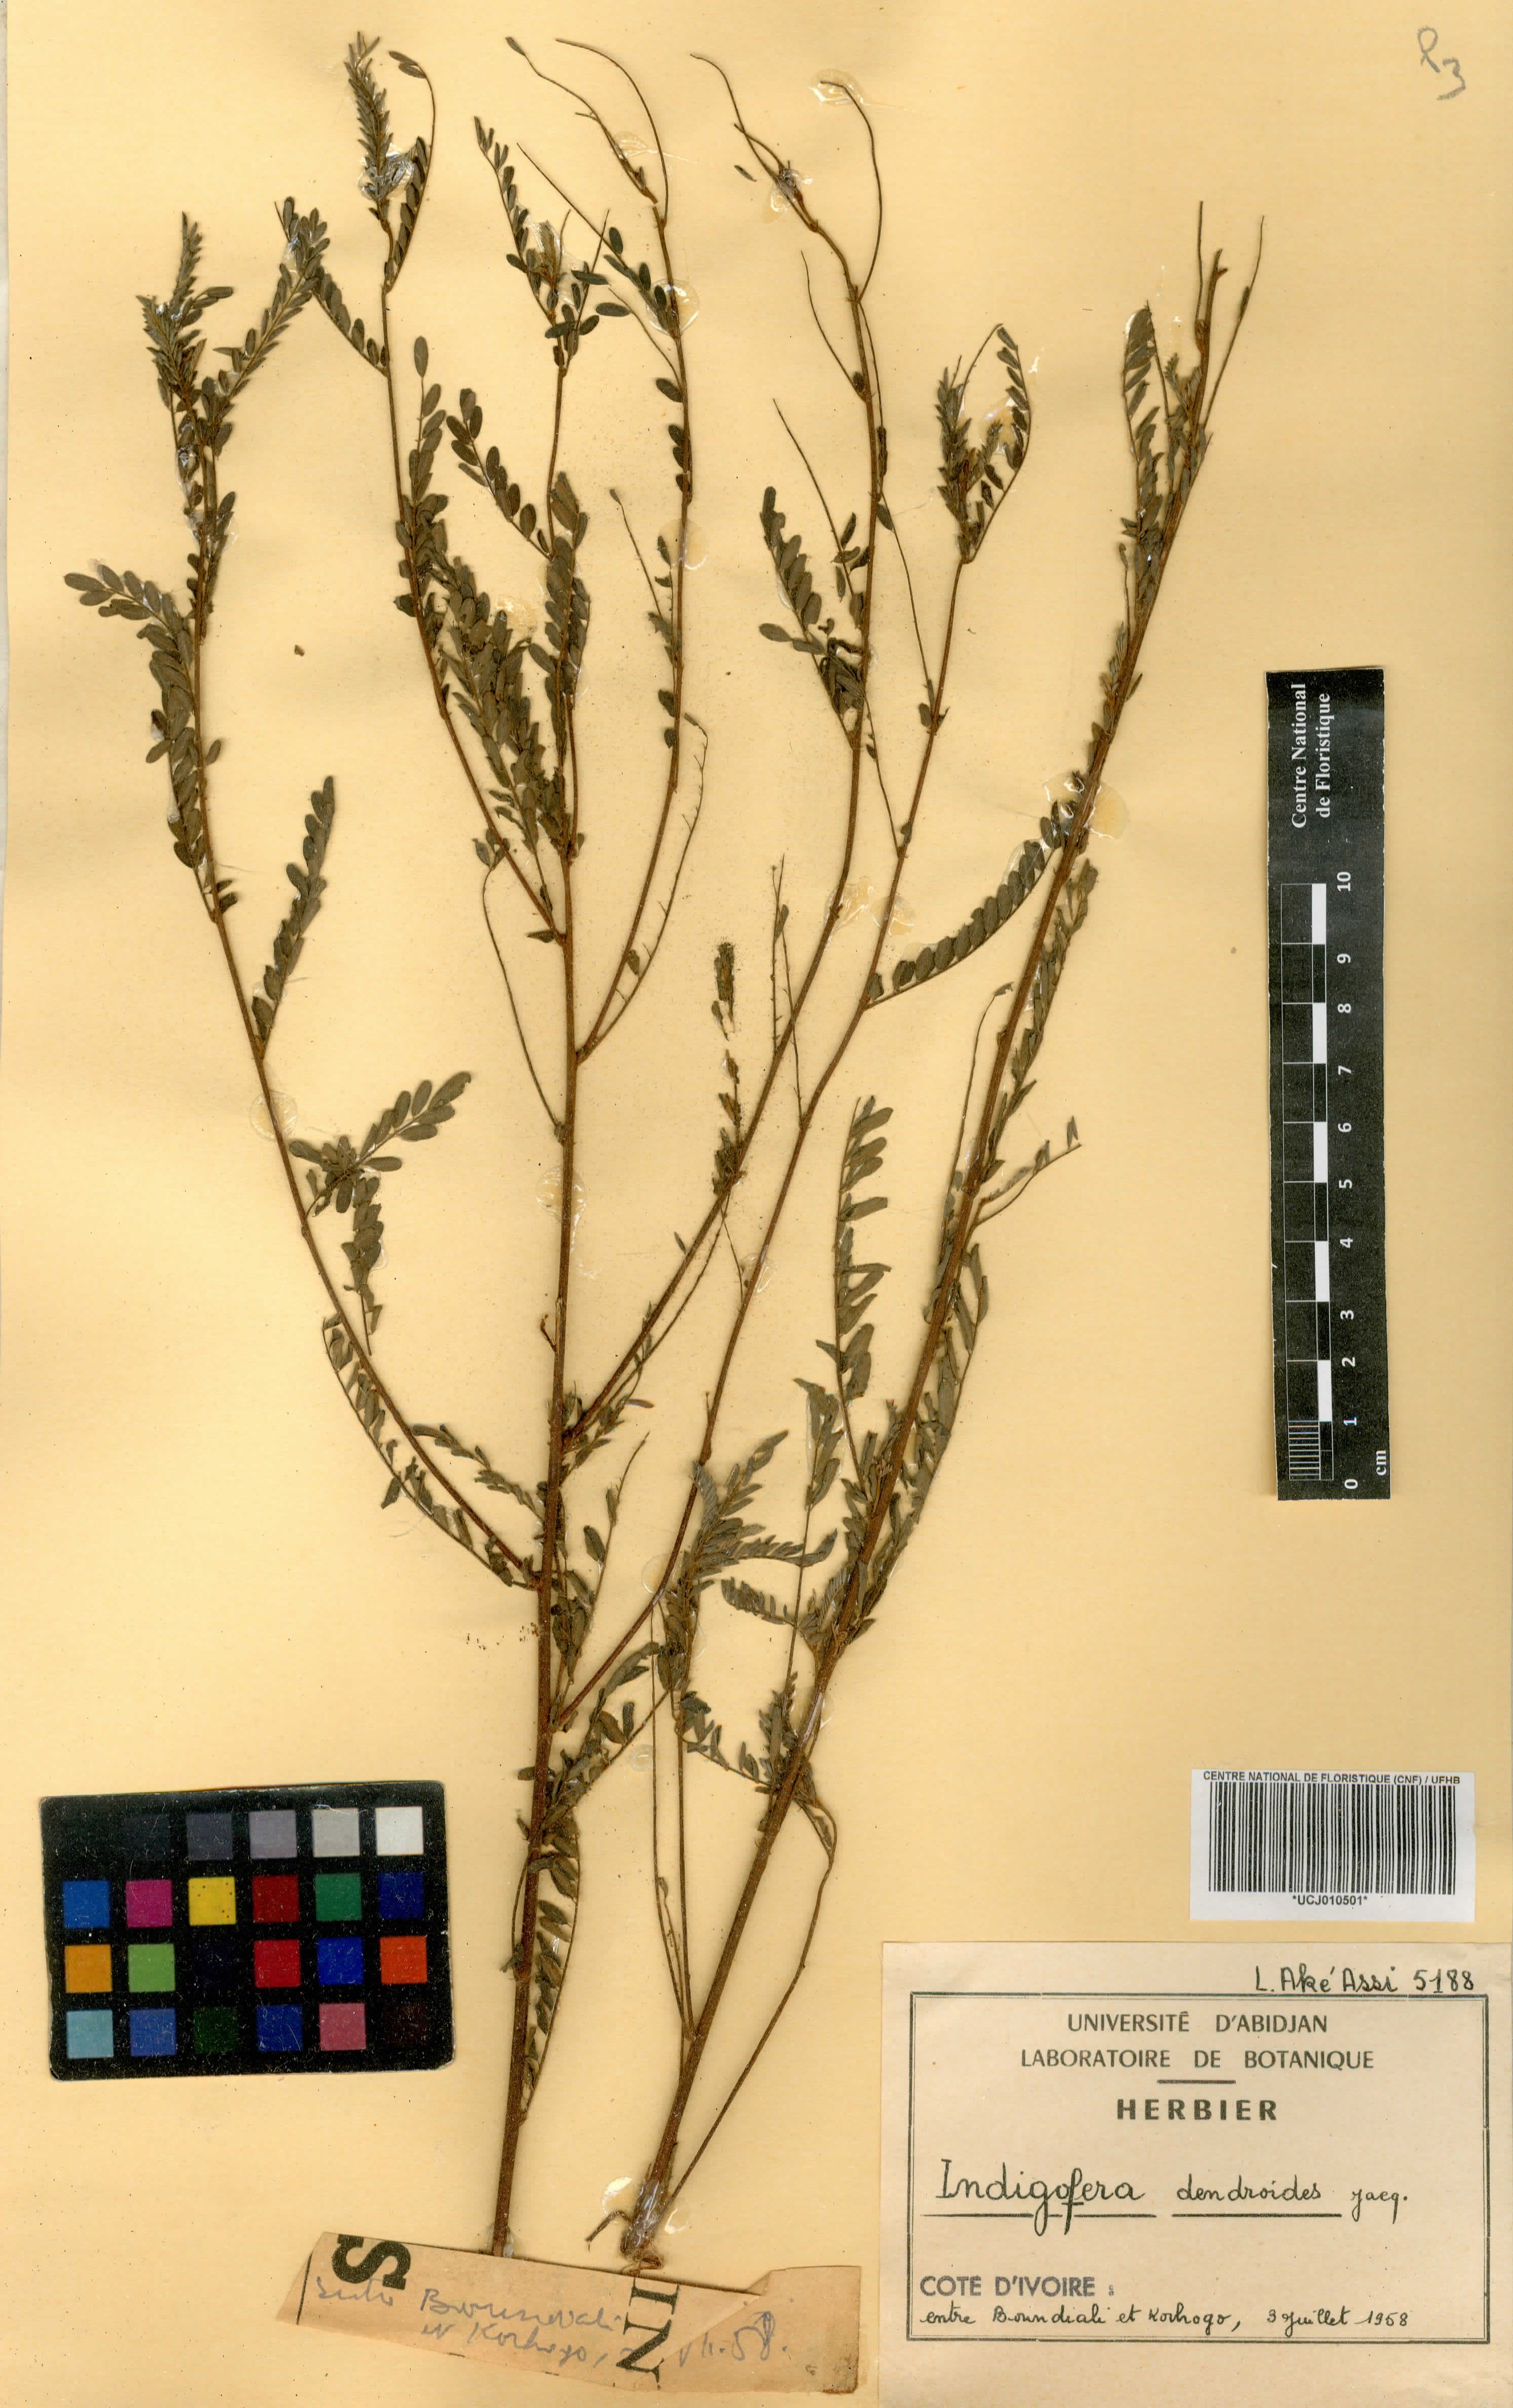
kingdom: Plantae
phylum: Tracheophyta
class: Magnoliopsida
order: Fabales
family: Fabaceae
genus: Indigofera
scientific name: Indigofera dendroides
